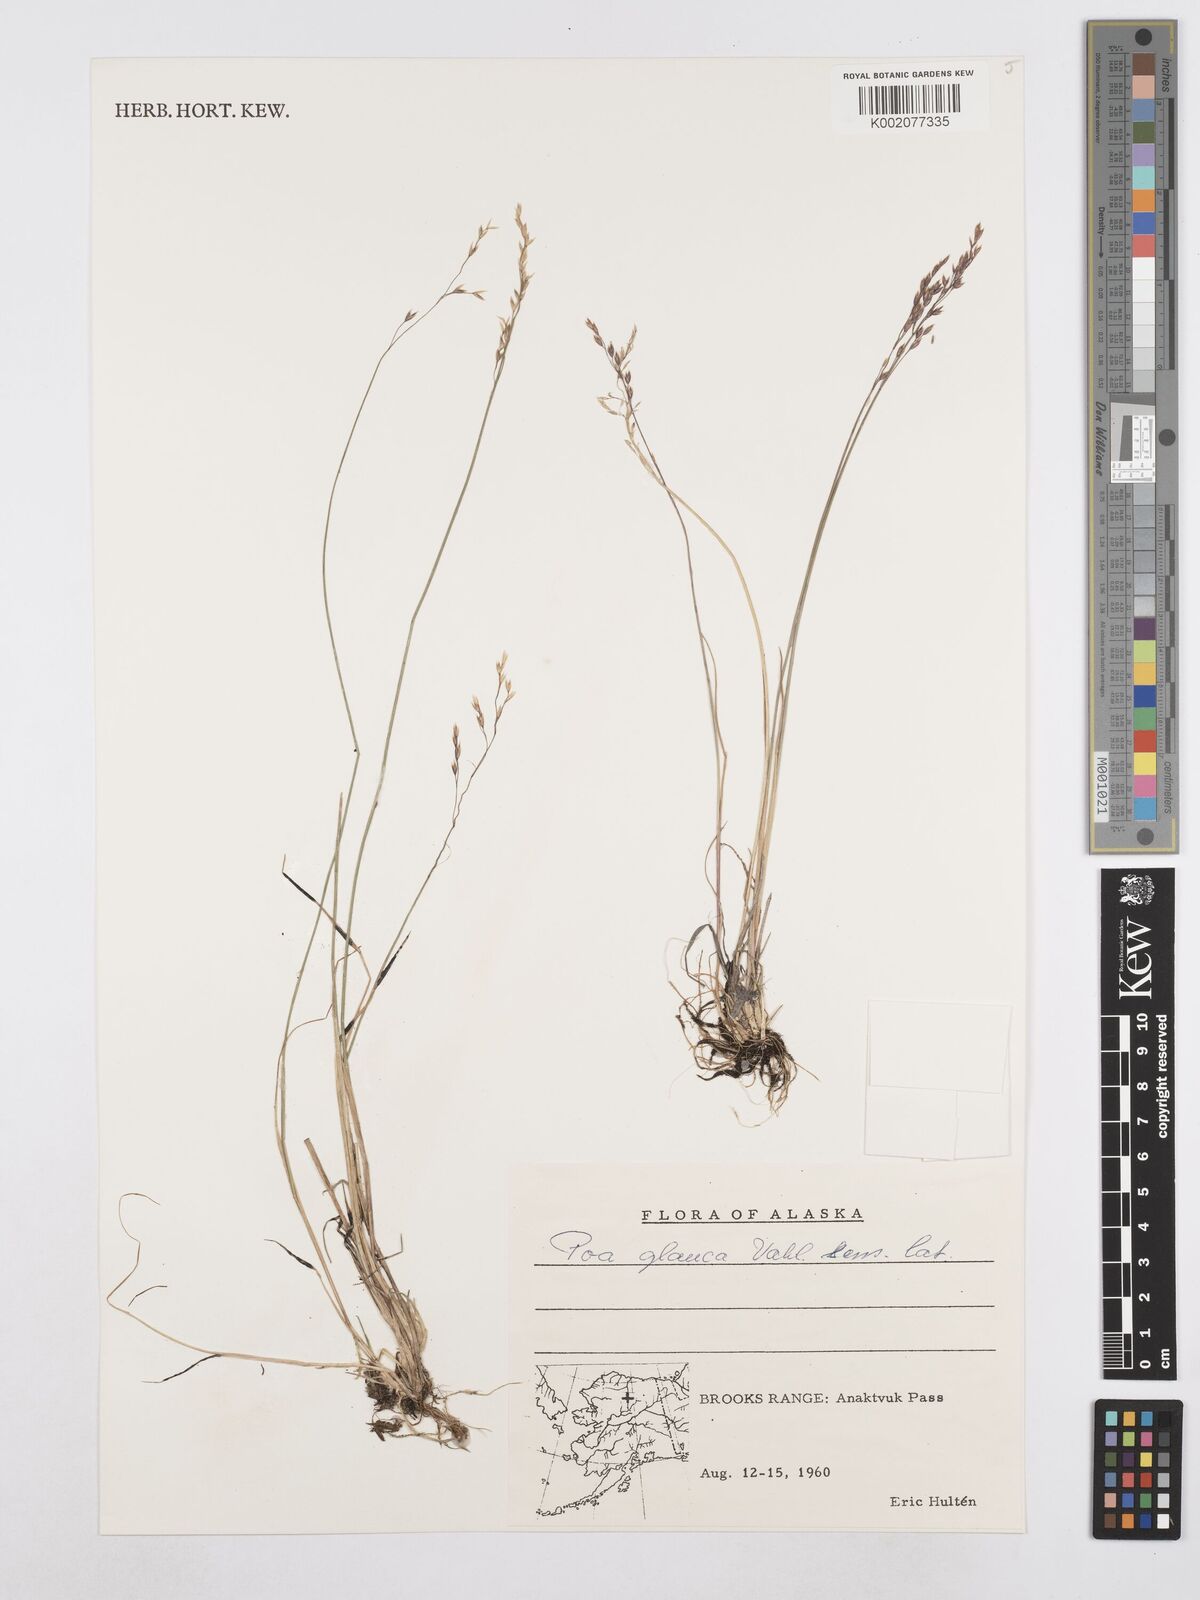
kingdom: Plantae
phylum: Tracheophyta
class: Liliopsida
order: Poales
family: Poaceae
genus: Poa
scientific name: Poa glauca
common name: Glaucous bluegrass
